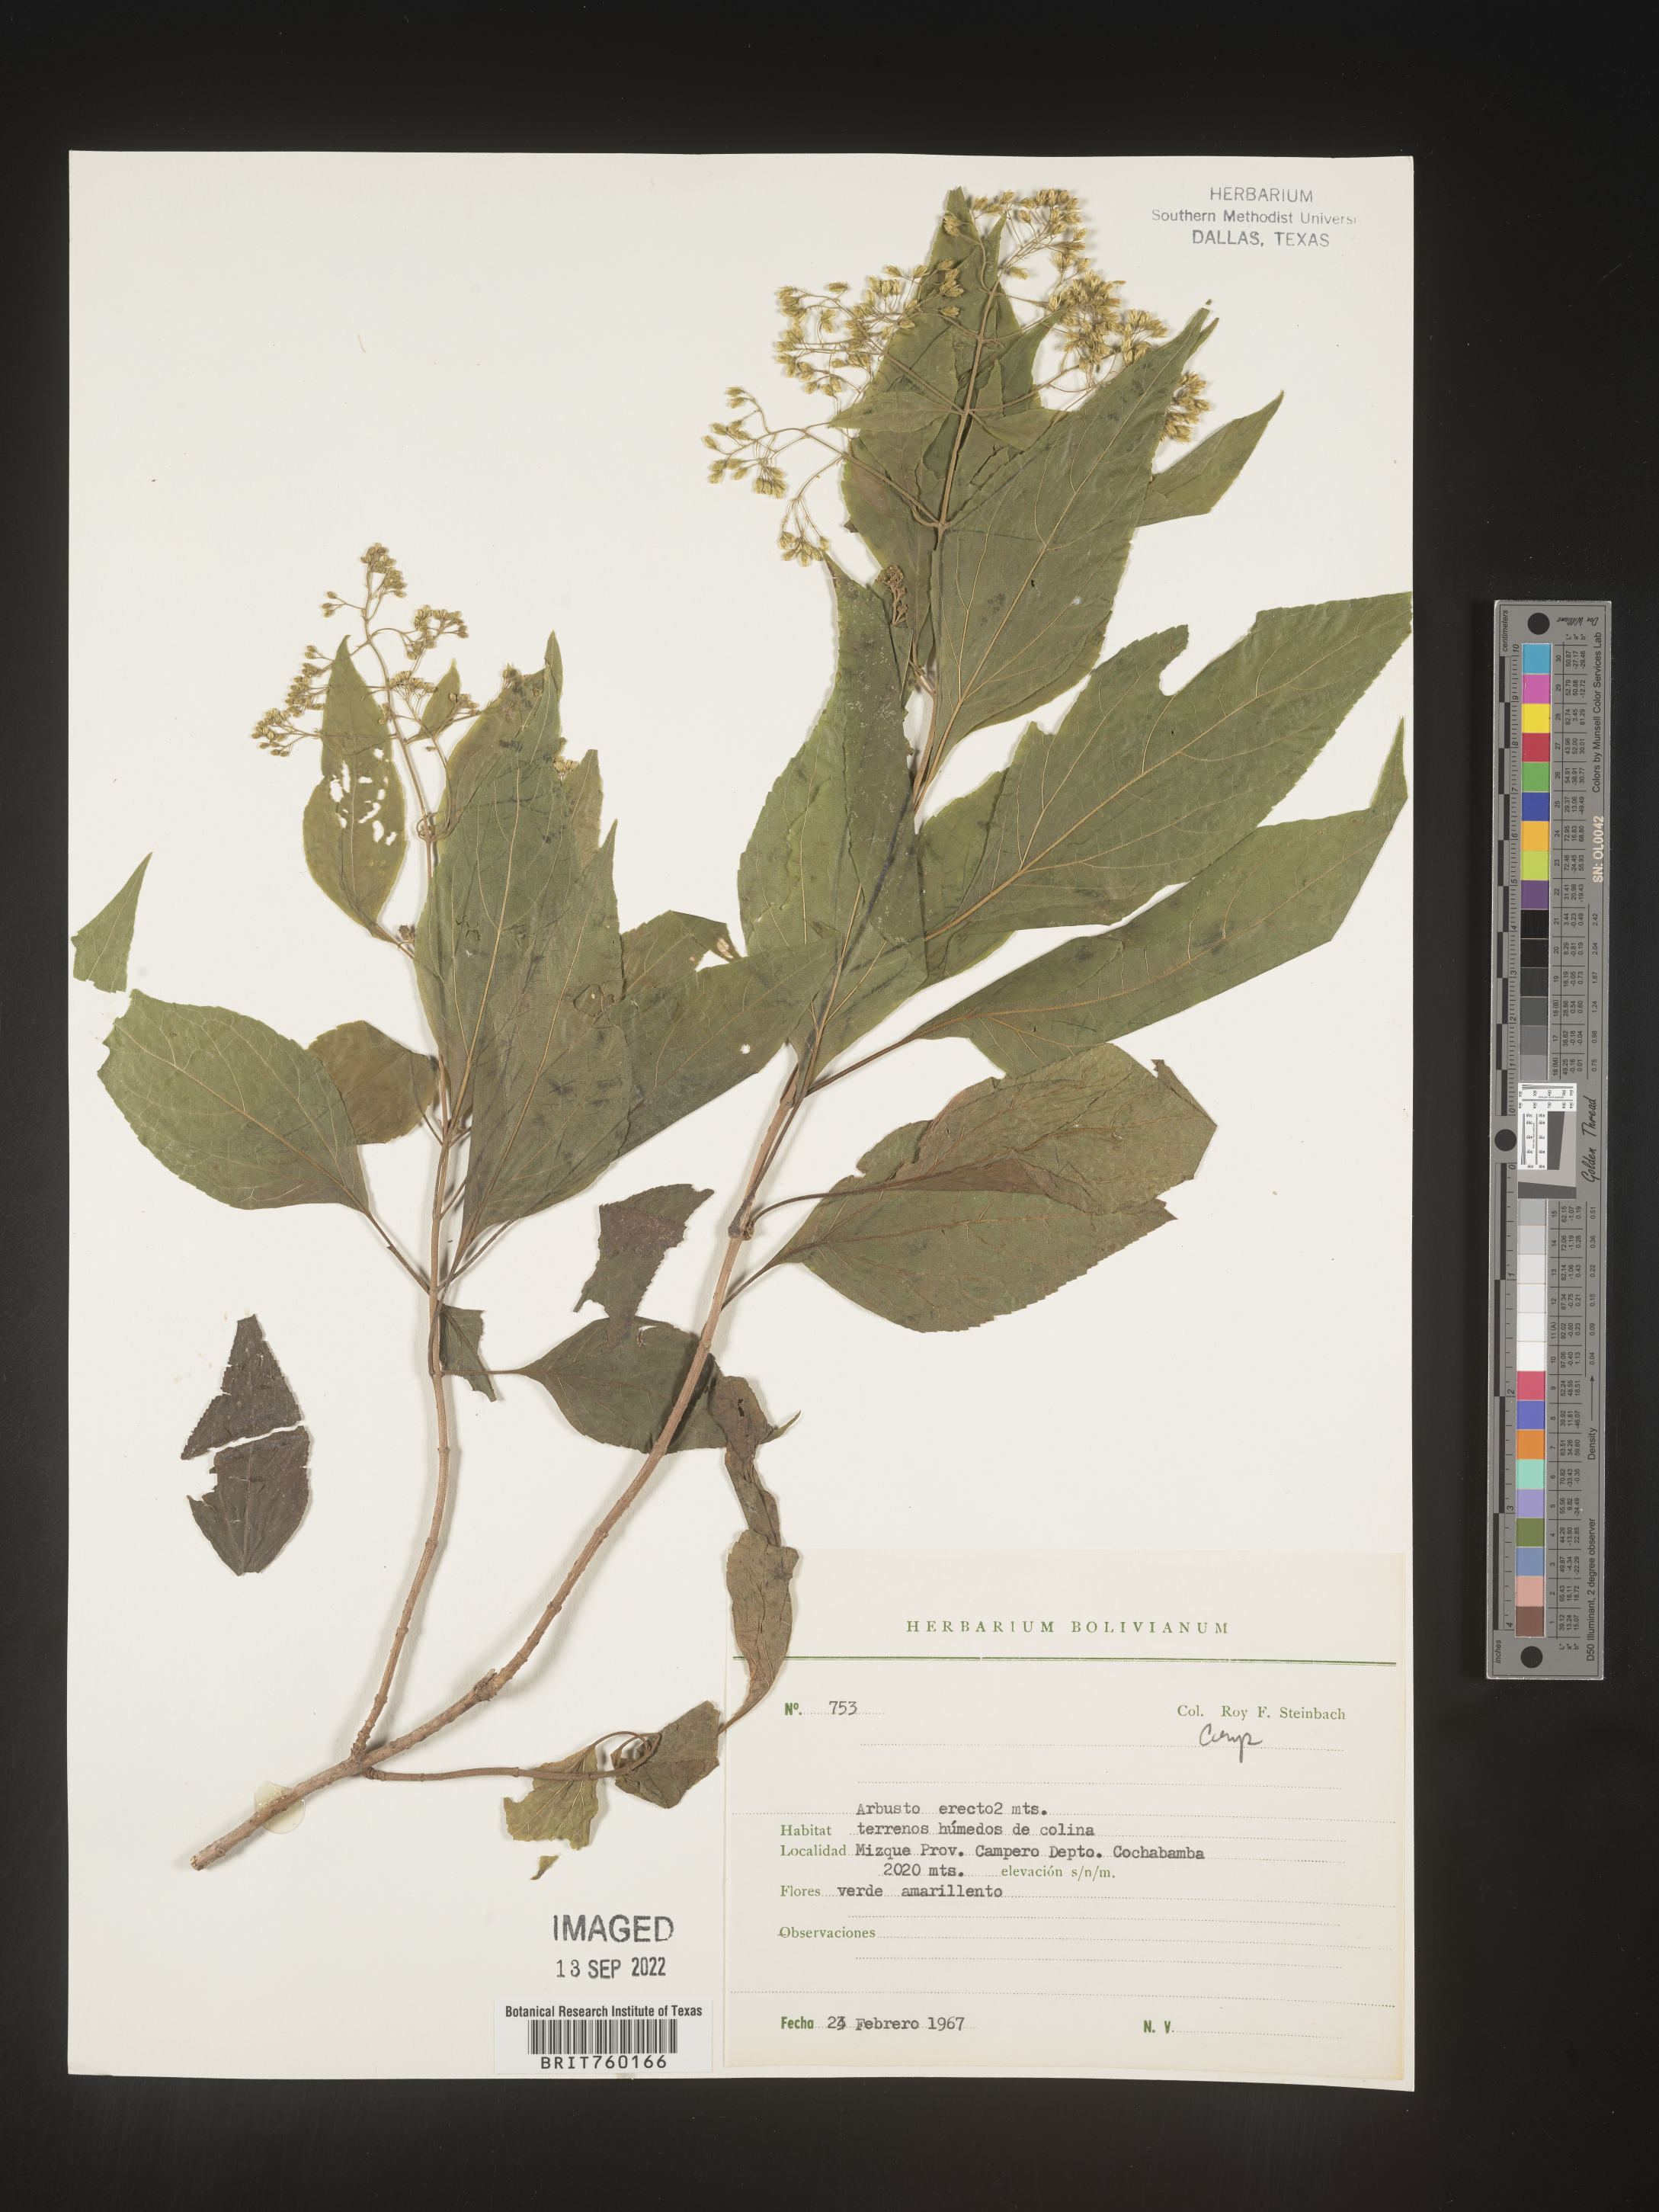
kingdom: Plantae
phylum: Tracheophyta
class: Magnoliopsida
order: Asterales
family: Asteraceae
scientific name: Asteraceae
